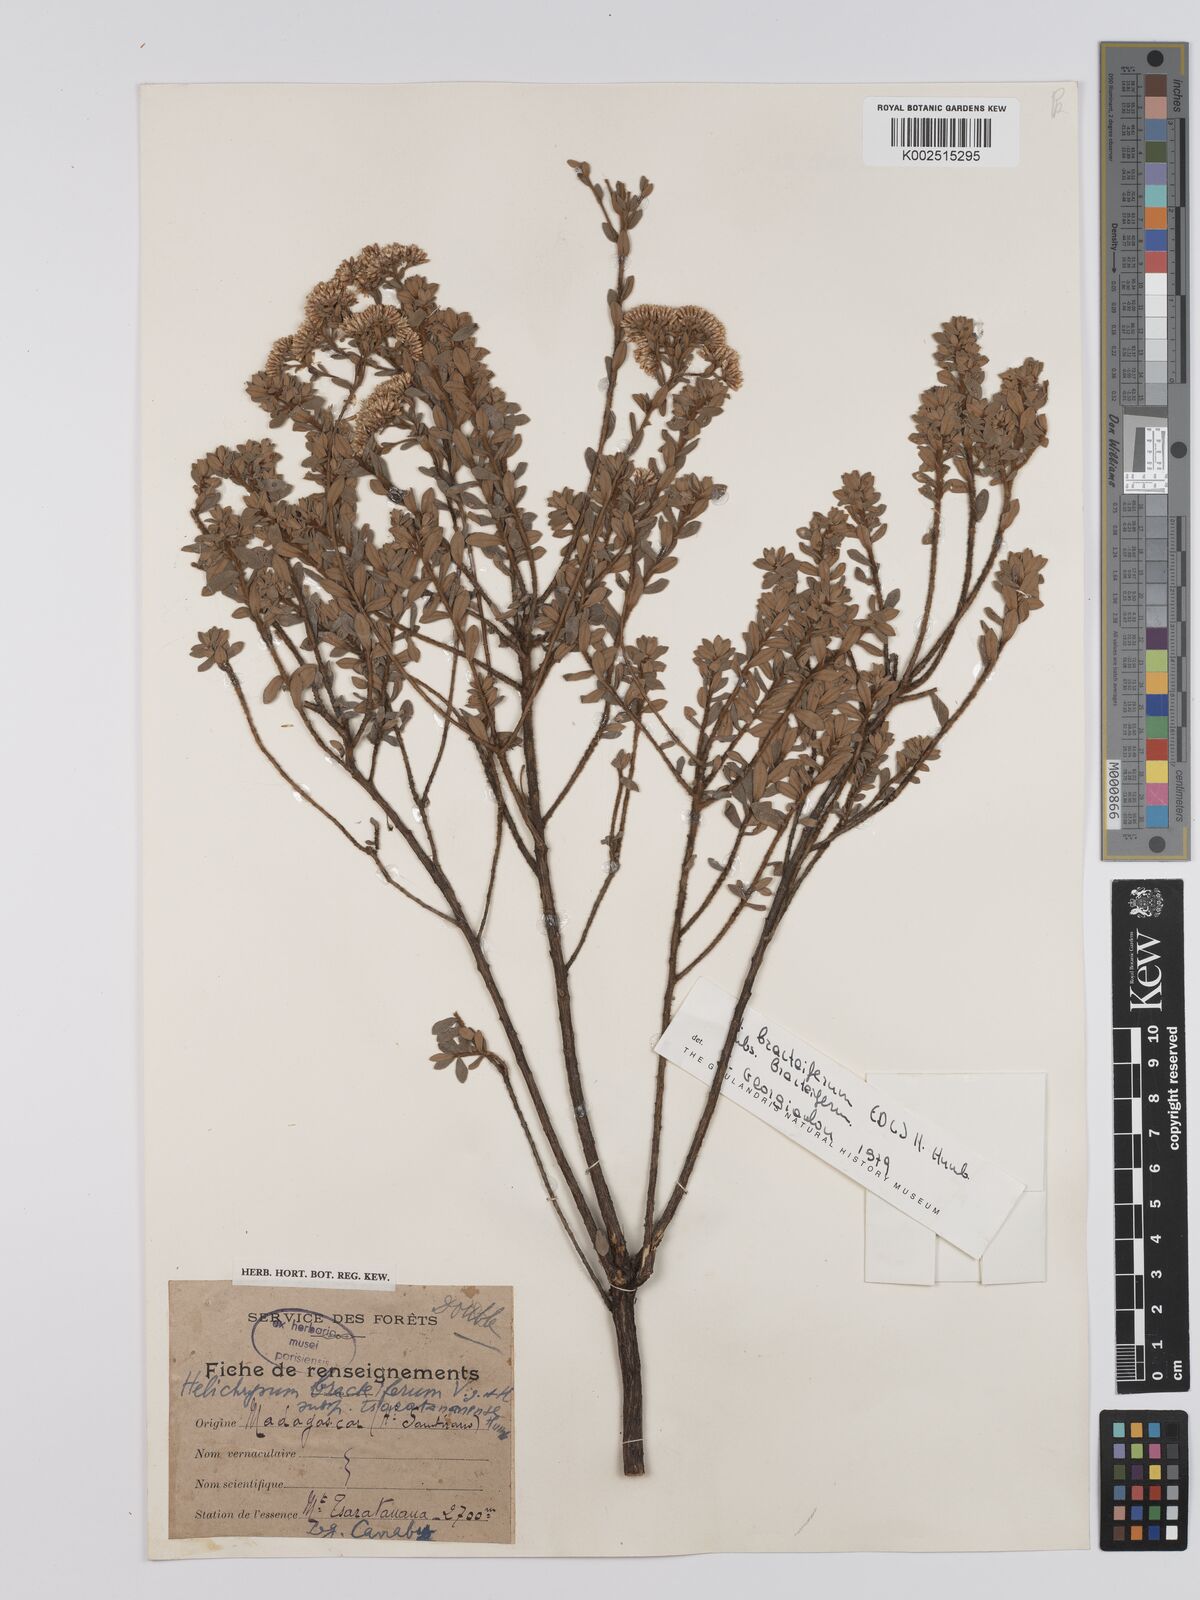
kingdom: Plantae
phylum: Tracheophyta
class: Magnoliopsida
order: Asterales
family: Asteraceae
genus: Helichrysum
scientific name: Helichrysum bracteiferum
